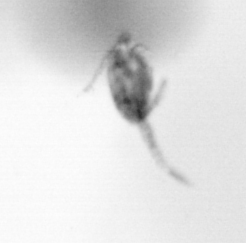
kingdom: Animalia
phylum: Arthropoda
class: Copepoda
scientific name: Copepoda
